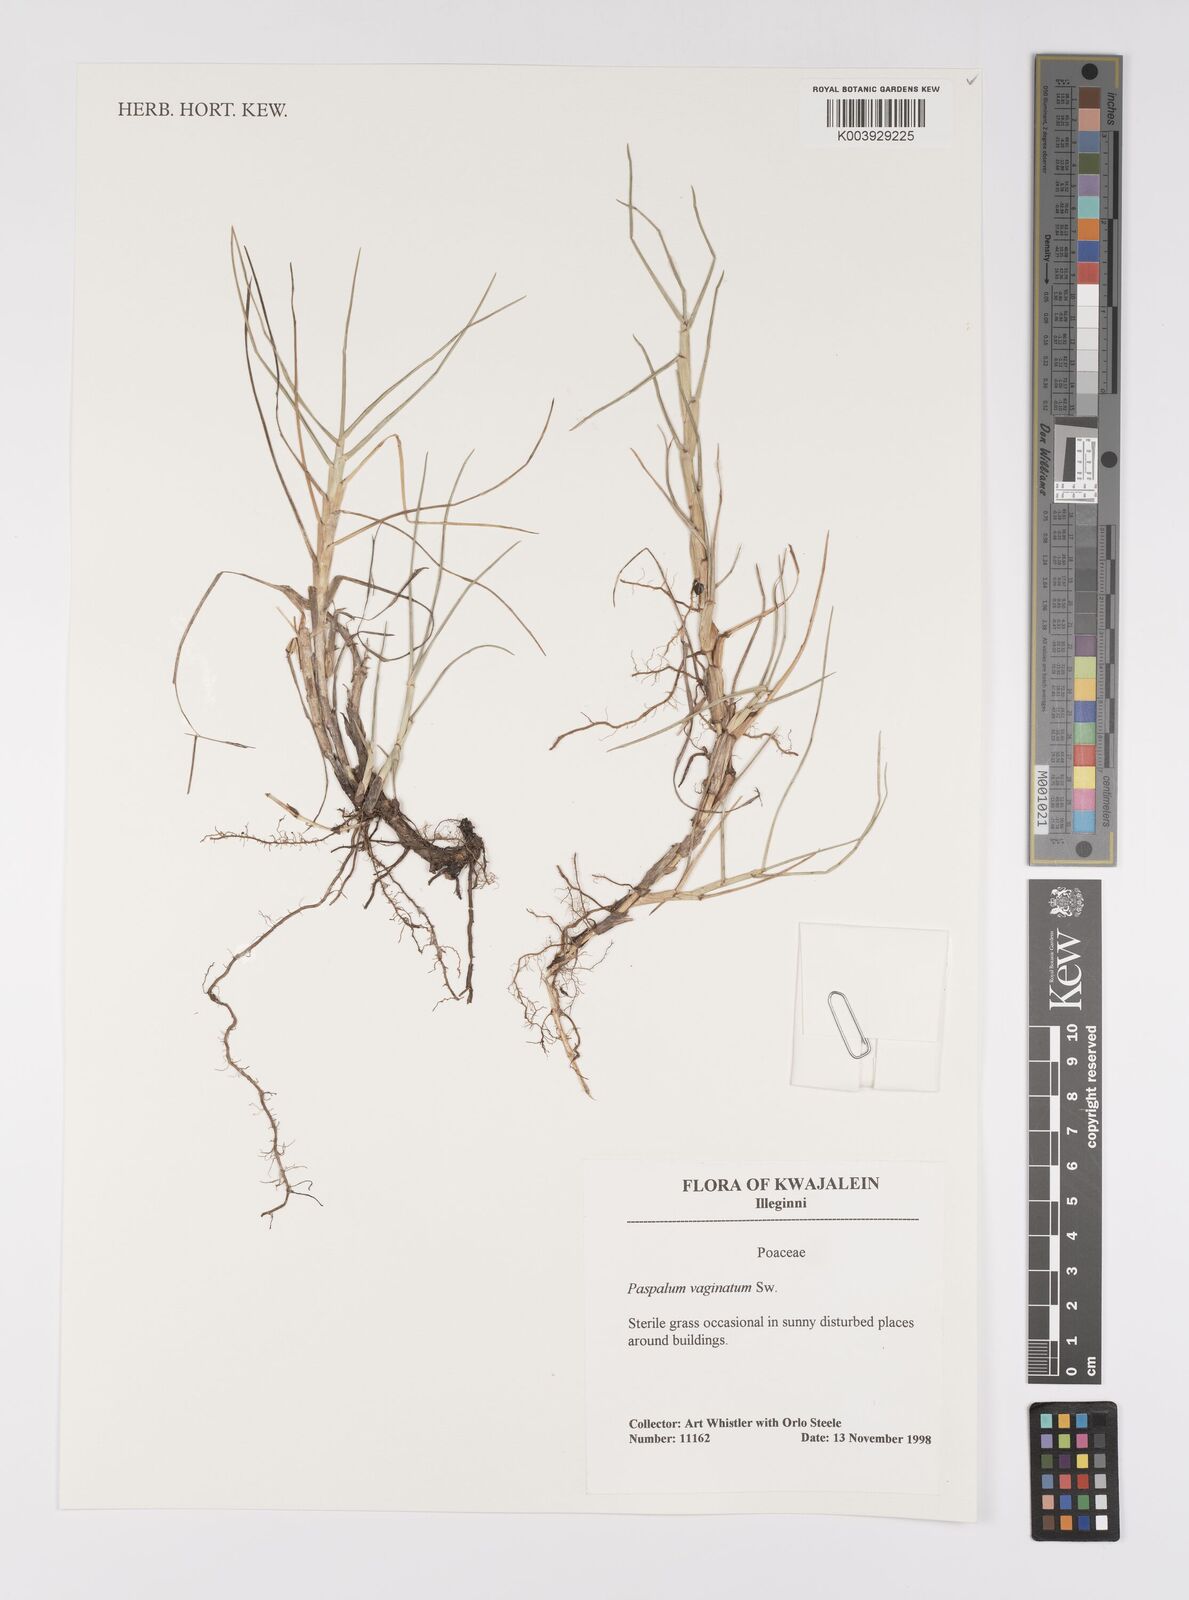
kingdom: Plantae
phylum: Tracheophyta
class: Liliopsida
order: Poales
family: Poaceae
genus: Paspalum
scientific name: Paspalum vaginatum
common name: Seashore paspalum
